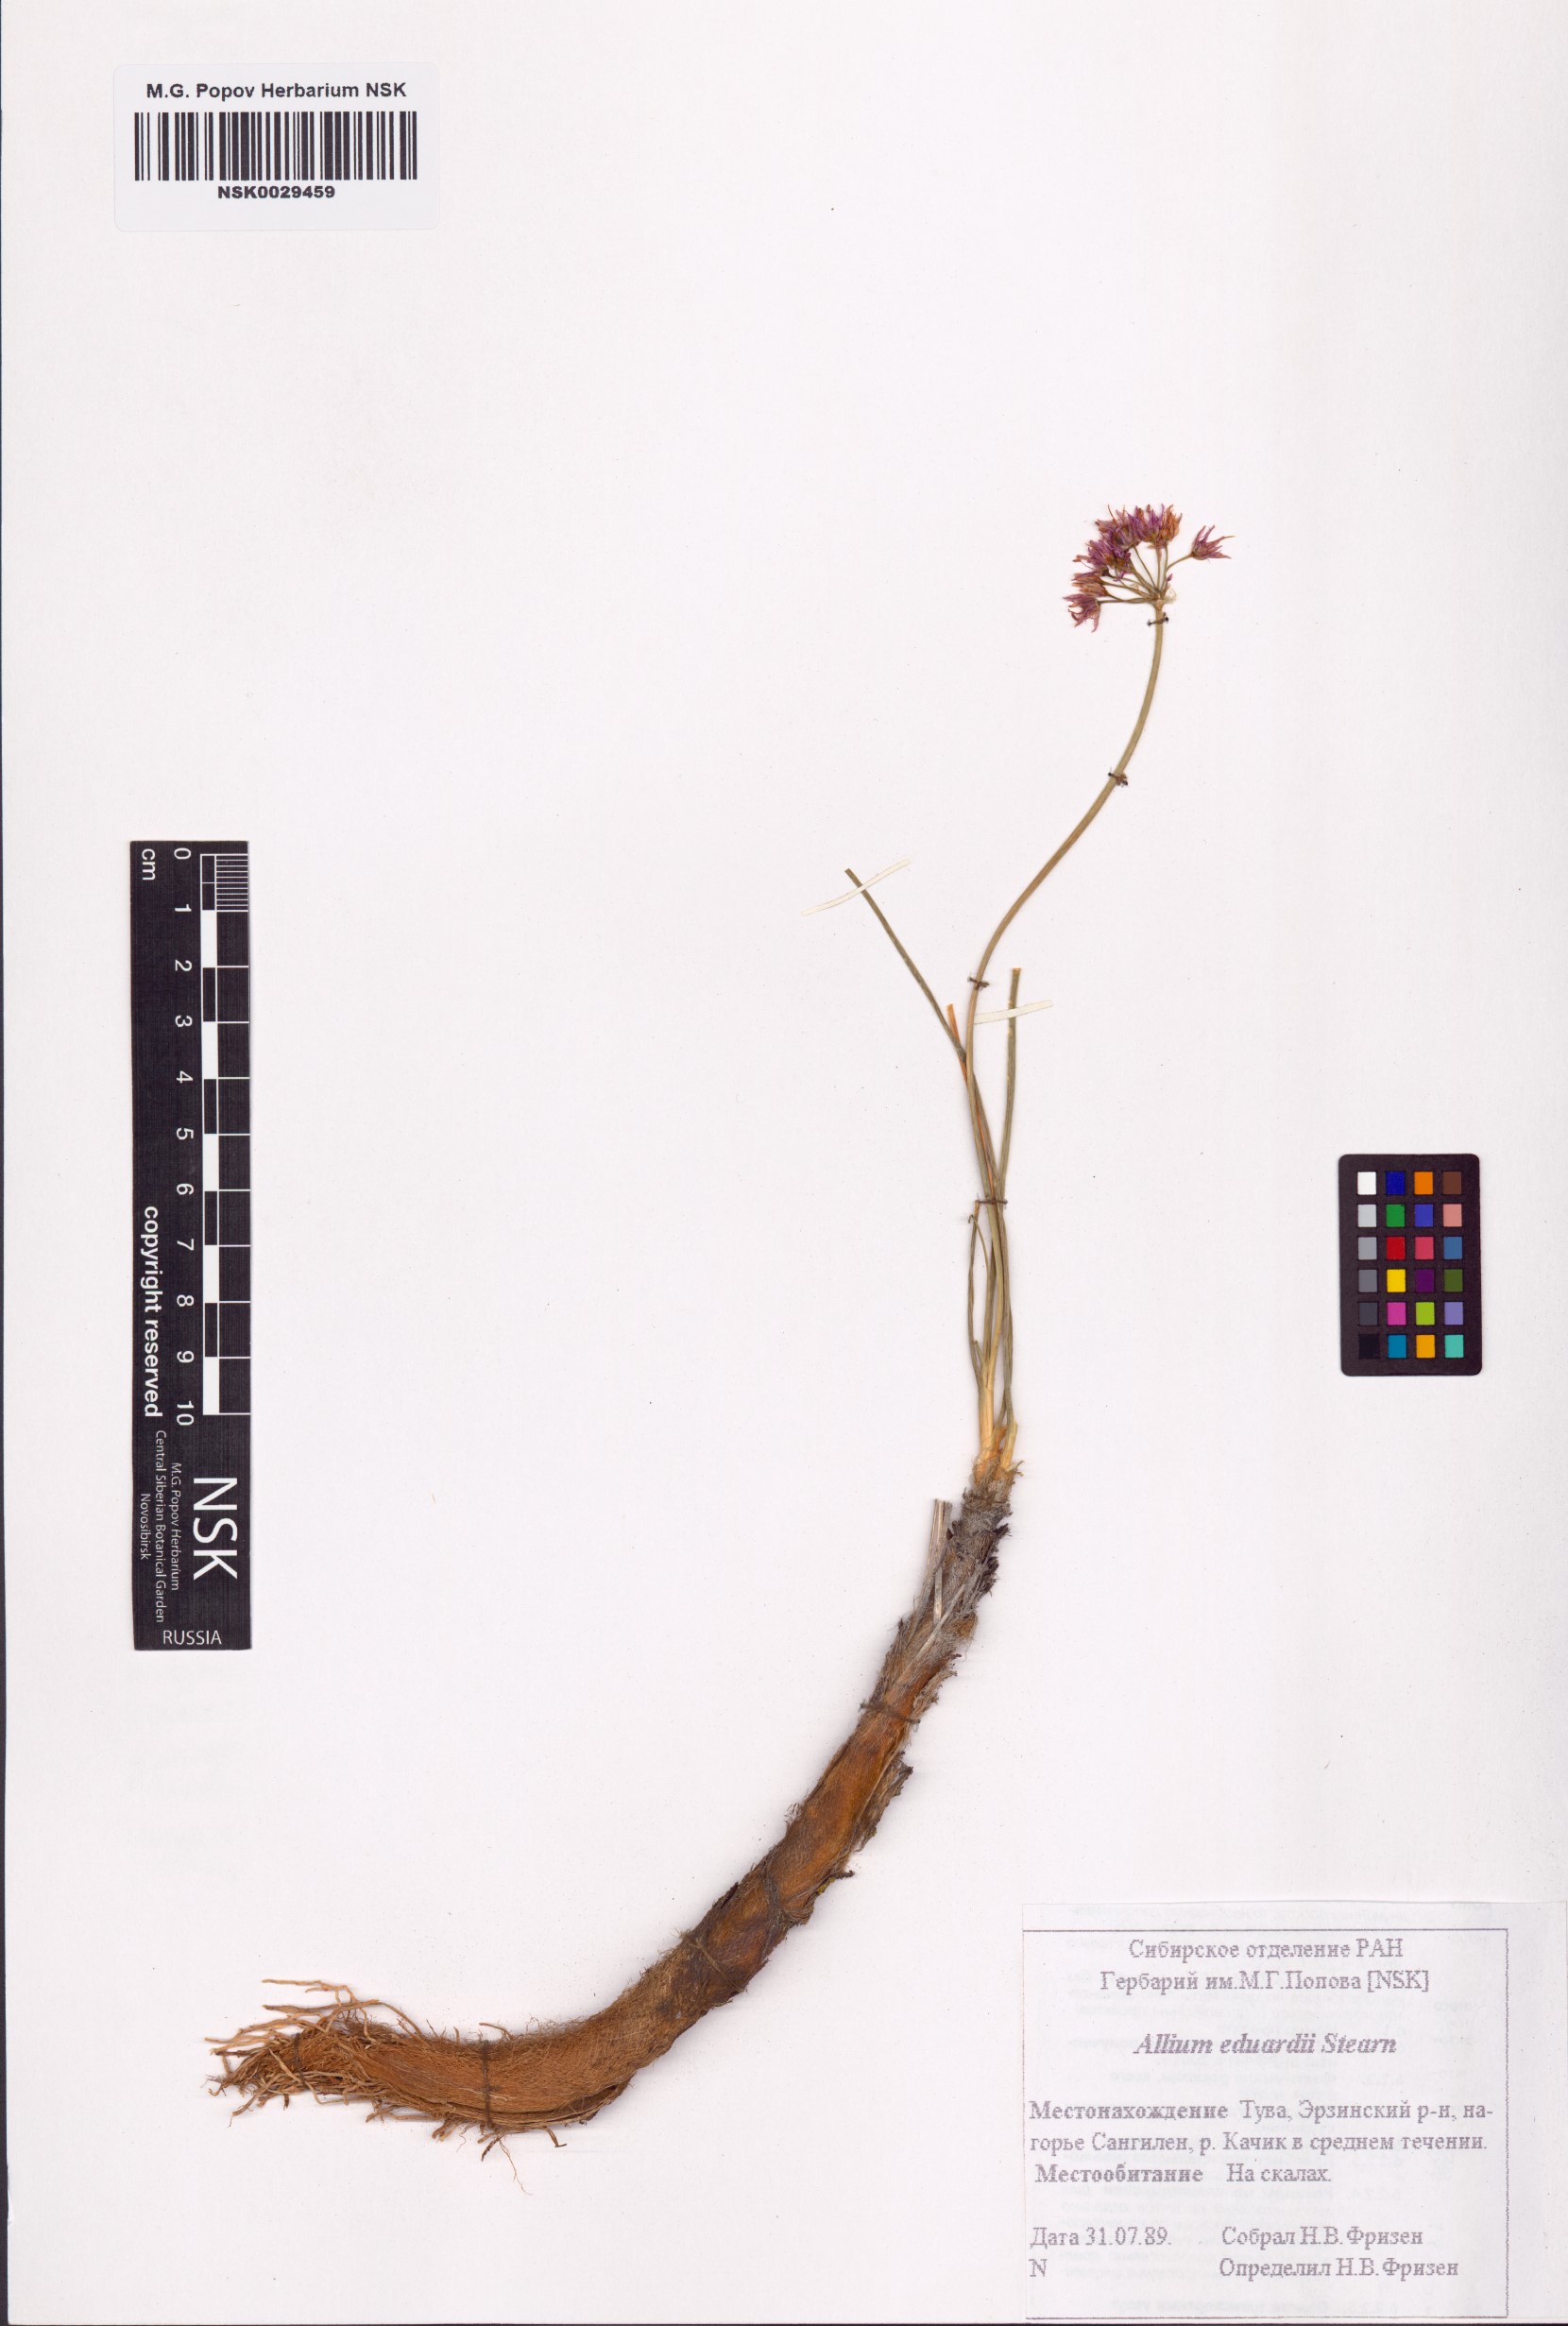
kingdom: Plantae
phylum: Tracheophyta
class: Liliopsida
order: Asparagales
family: Amaryllidaceae
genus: Allium
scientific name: Allium eduardi
